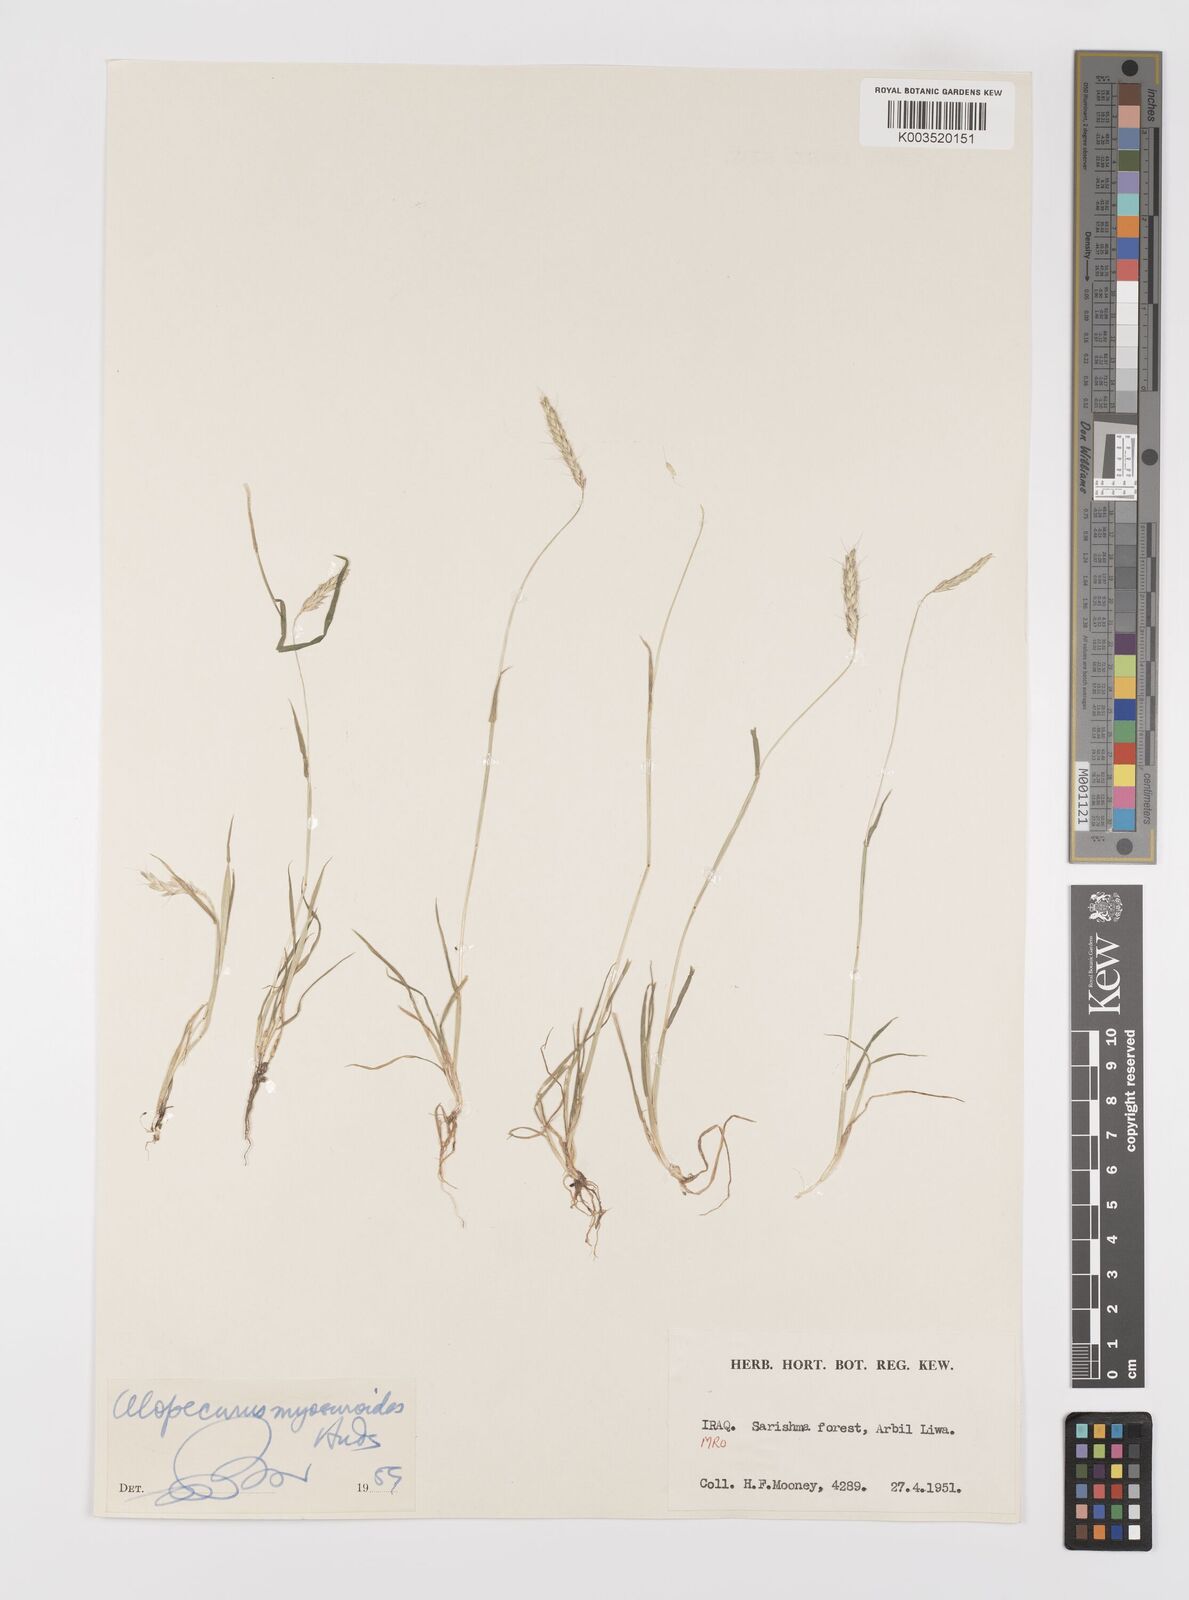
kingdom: Plantae
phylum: Tracheophyta
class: Liliopsida
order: Poales
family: Poaceae
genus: Alopecurus
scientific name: Alopecurus myosuroides
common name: Black-grass
